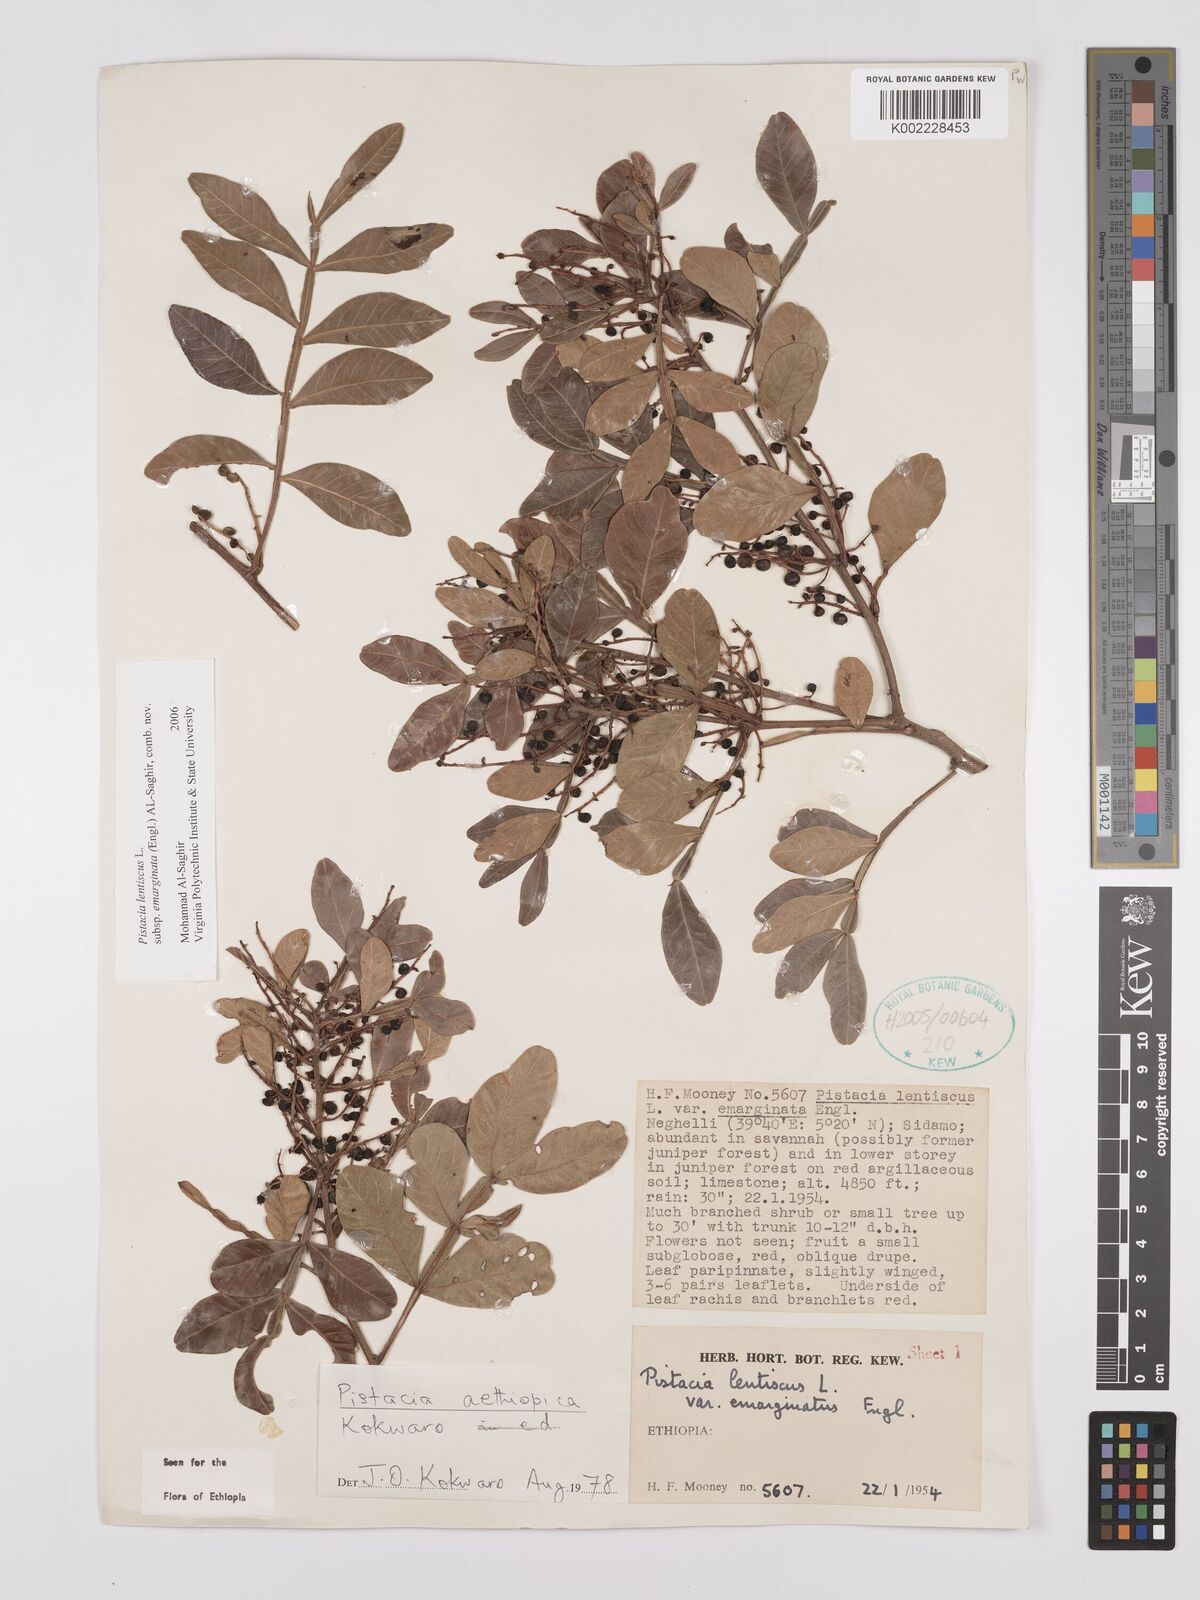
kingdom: Plantae
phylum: Tracheophyta
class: Magnoliopsida
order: Sapindales
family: Anacardiaceae
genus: Pistacia
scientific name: Pistacia lentiscus
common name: Lentisk
